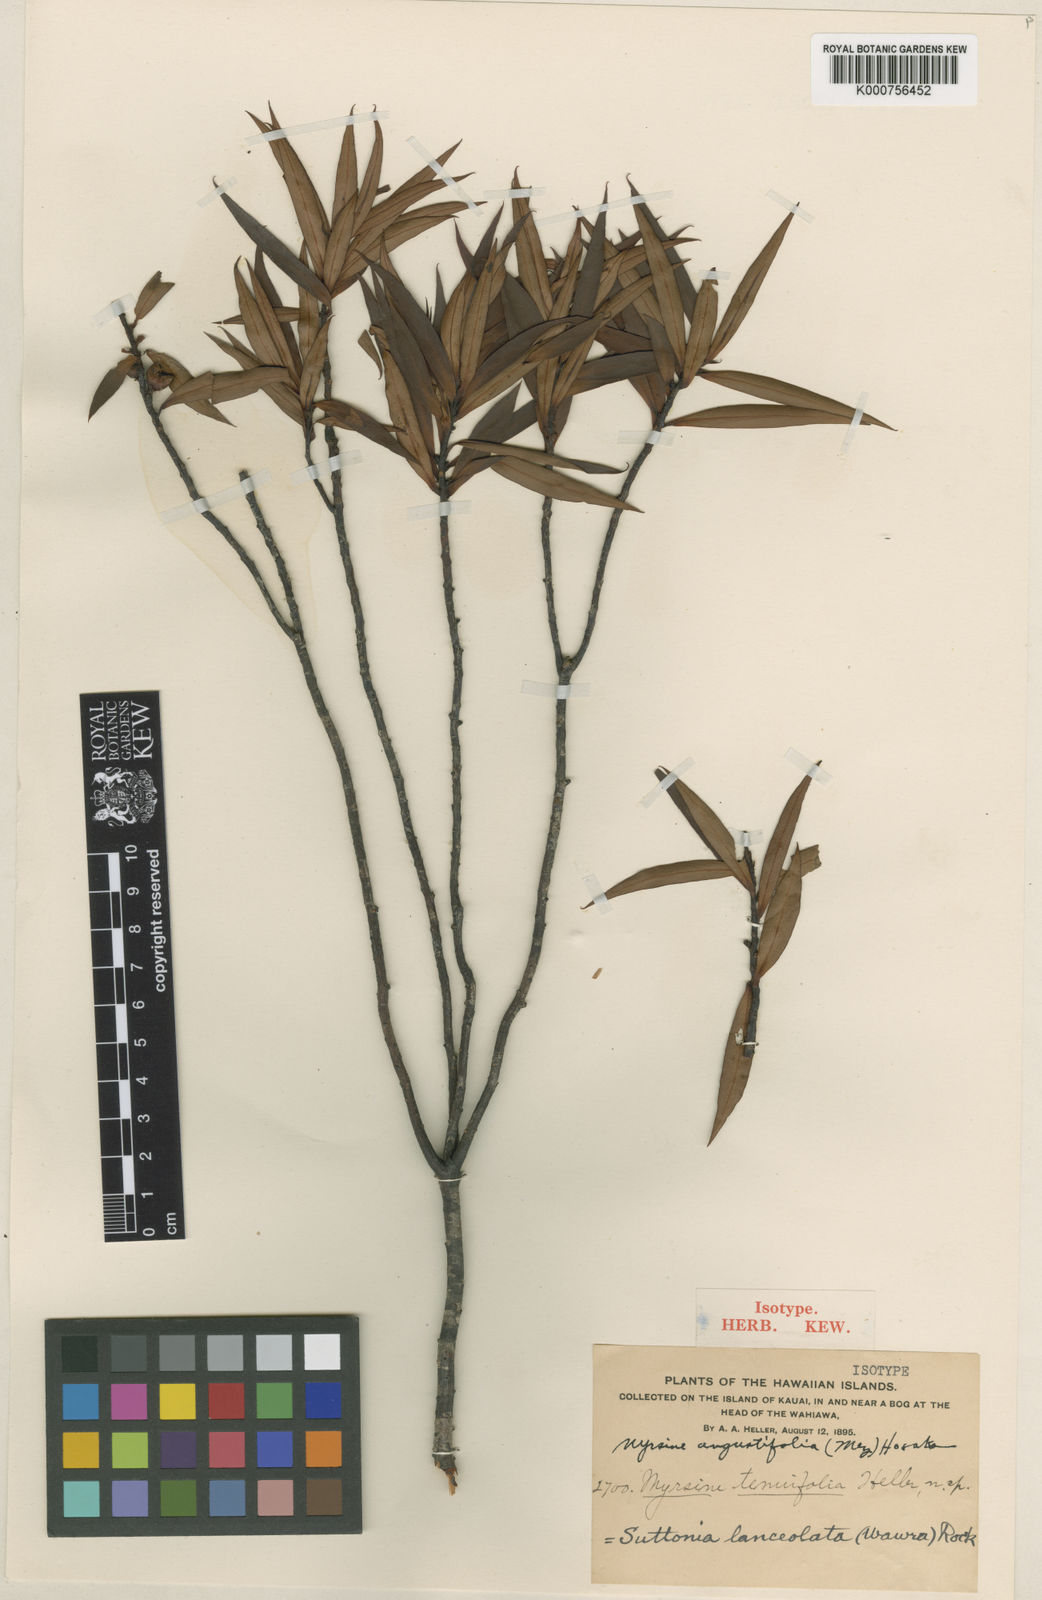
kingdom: Plantae
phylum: Tracheophyta
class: Magnoliopsida
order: Ericales
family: Primulaceae
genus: Myrsine
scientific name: Myrsine helleri
